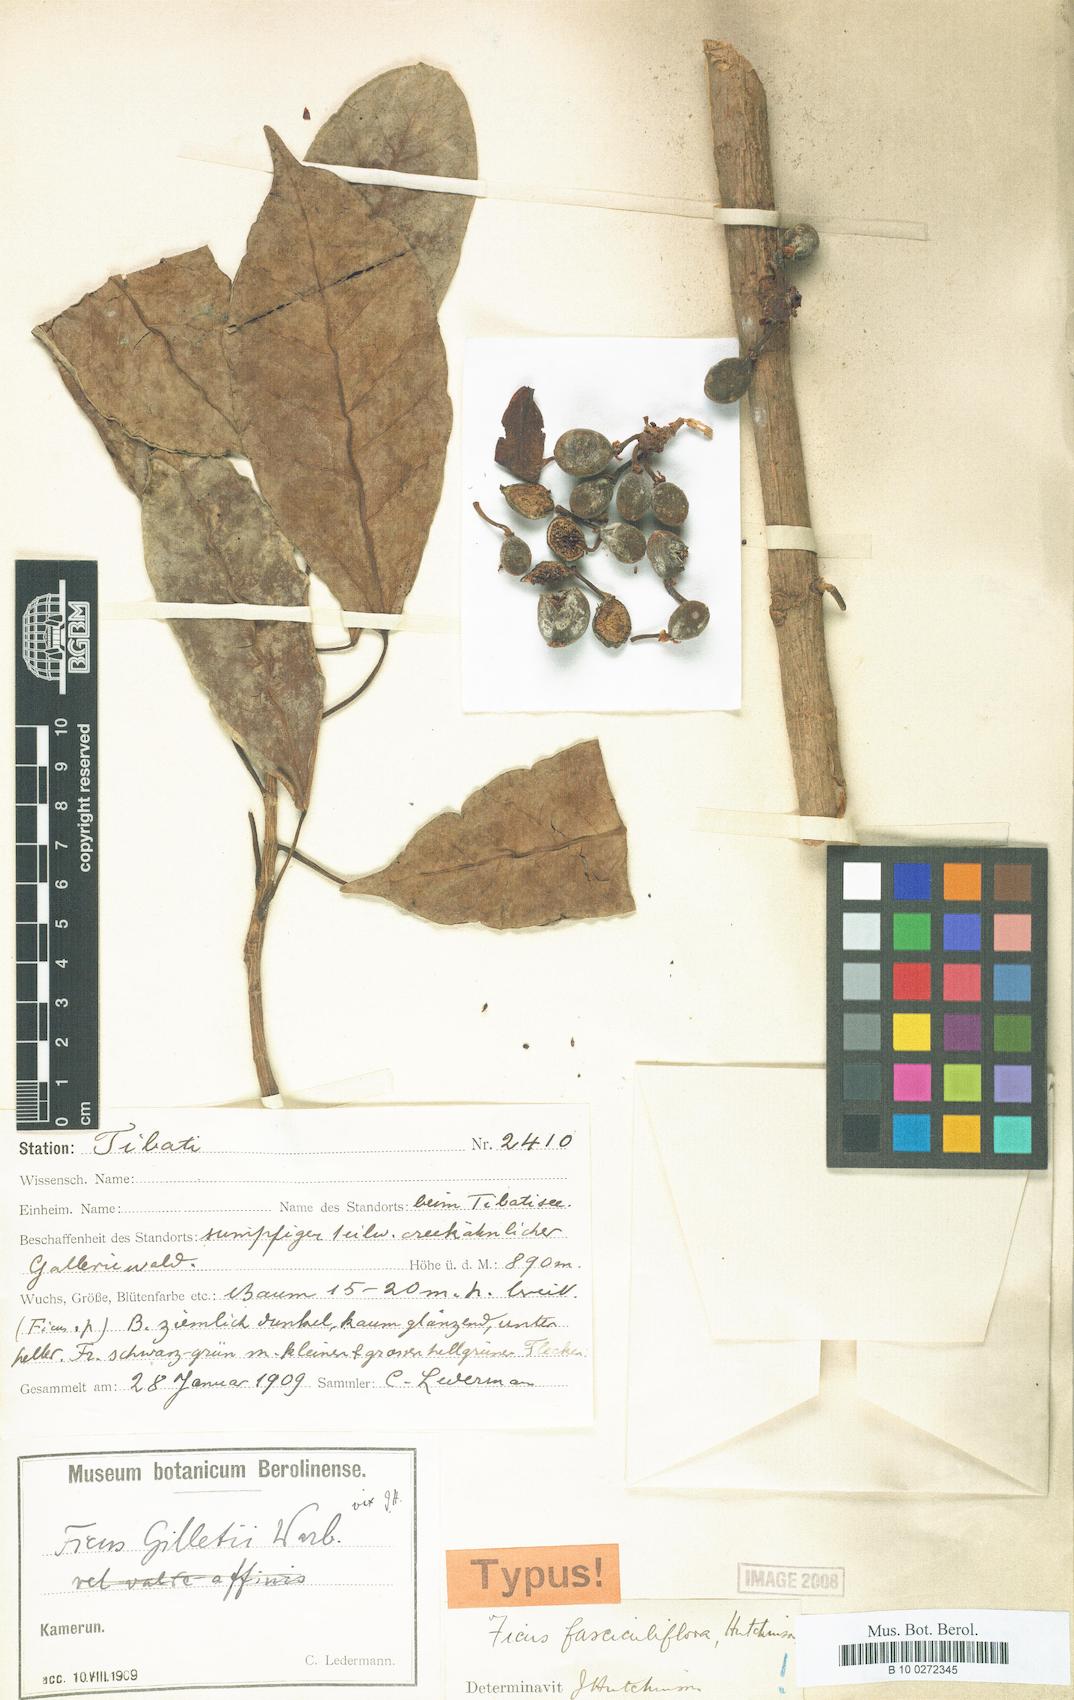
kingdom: Plantae
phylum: Tracheophyta
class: Magnoliopsida
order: Rosales
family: Moraceae
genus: Ficus
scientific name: Ficus ottoniifolia
